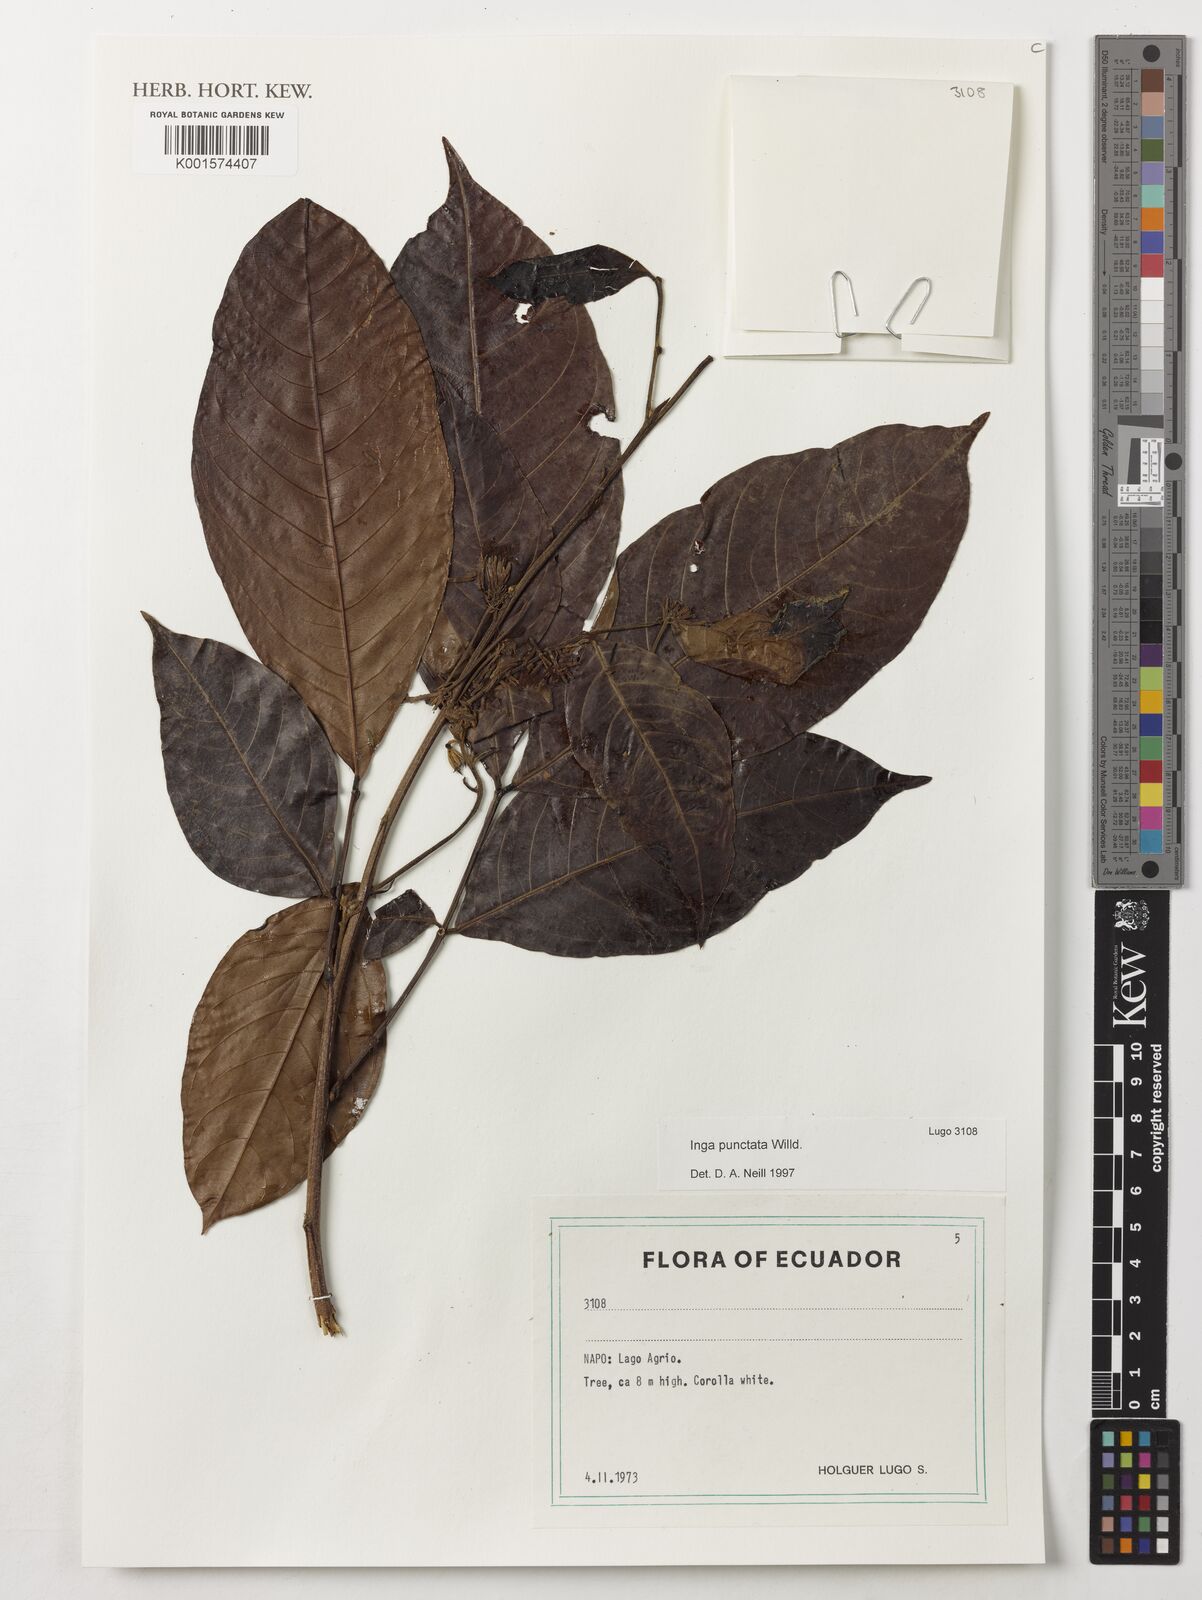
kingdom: Plantae
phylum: Tracheophyta
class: Magnoliopsida
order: Fabales
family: Fabaceae
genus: Inga
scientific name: Inga punctata
